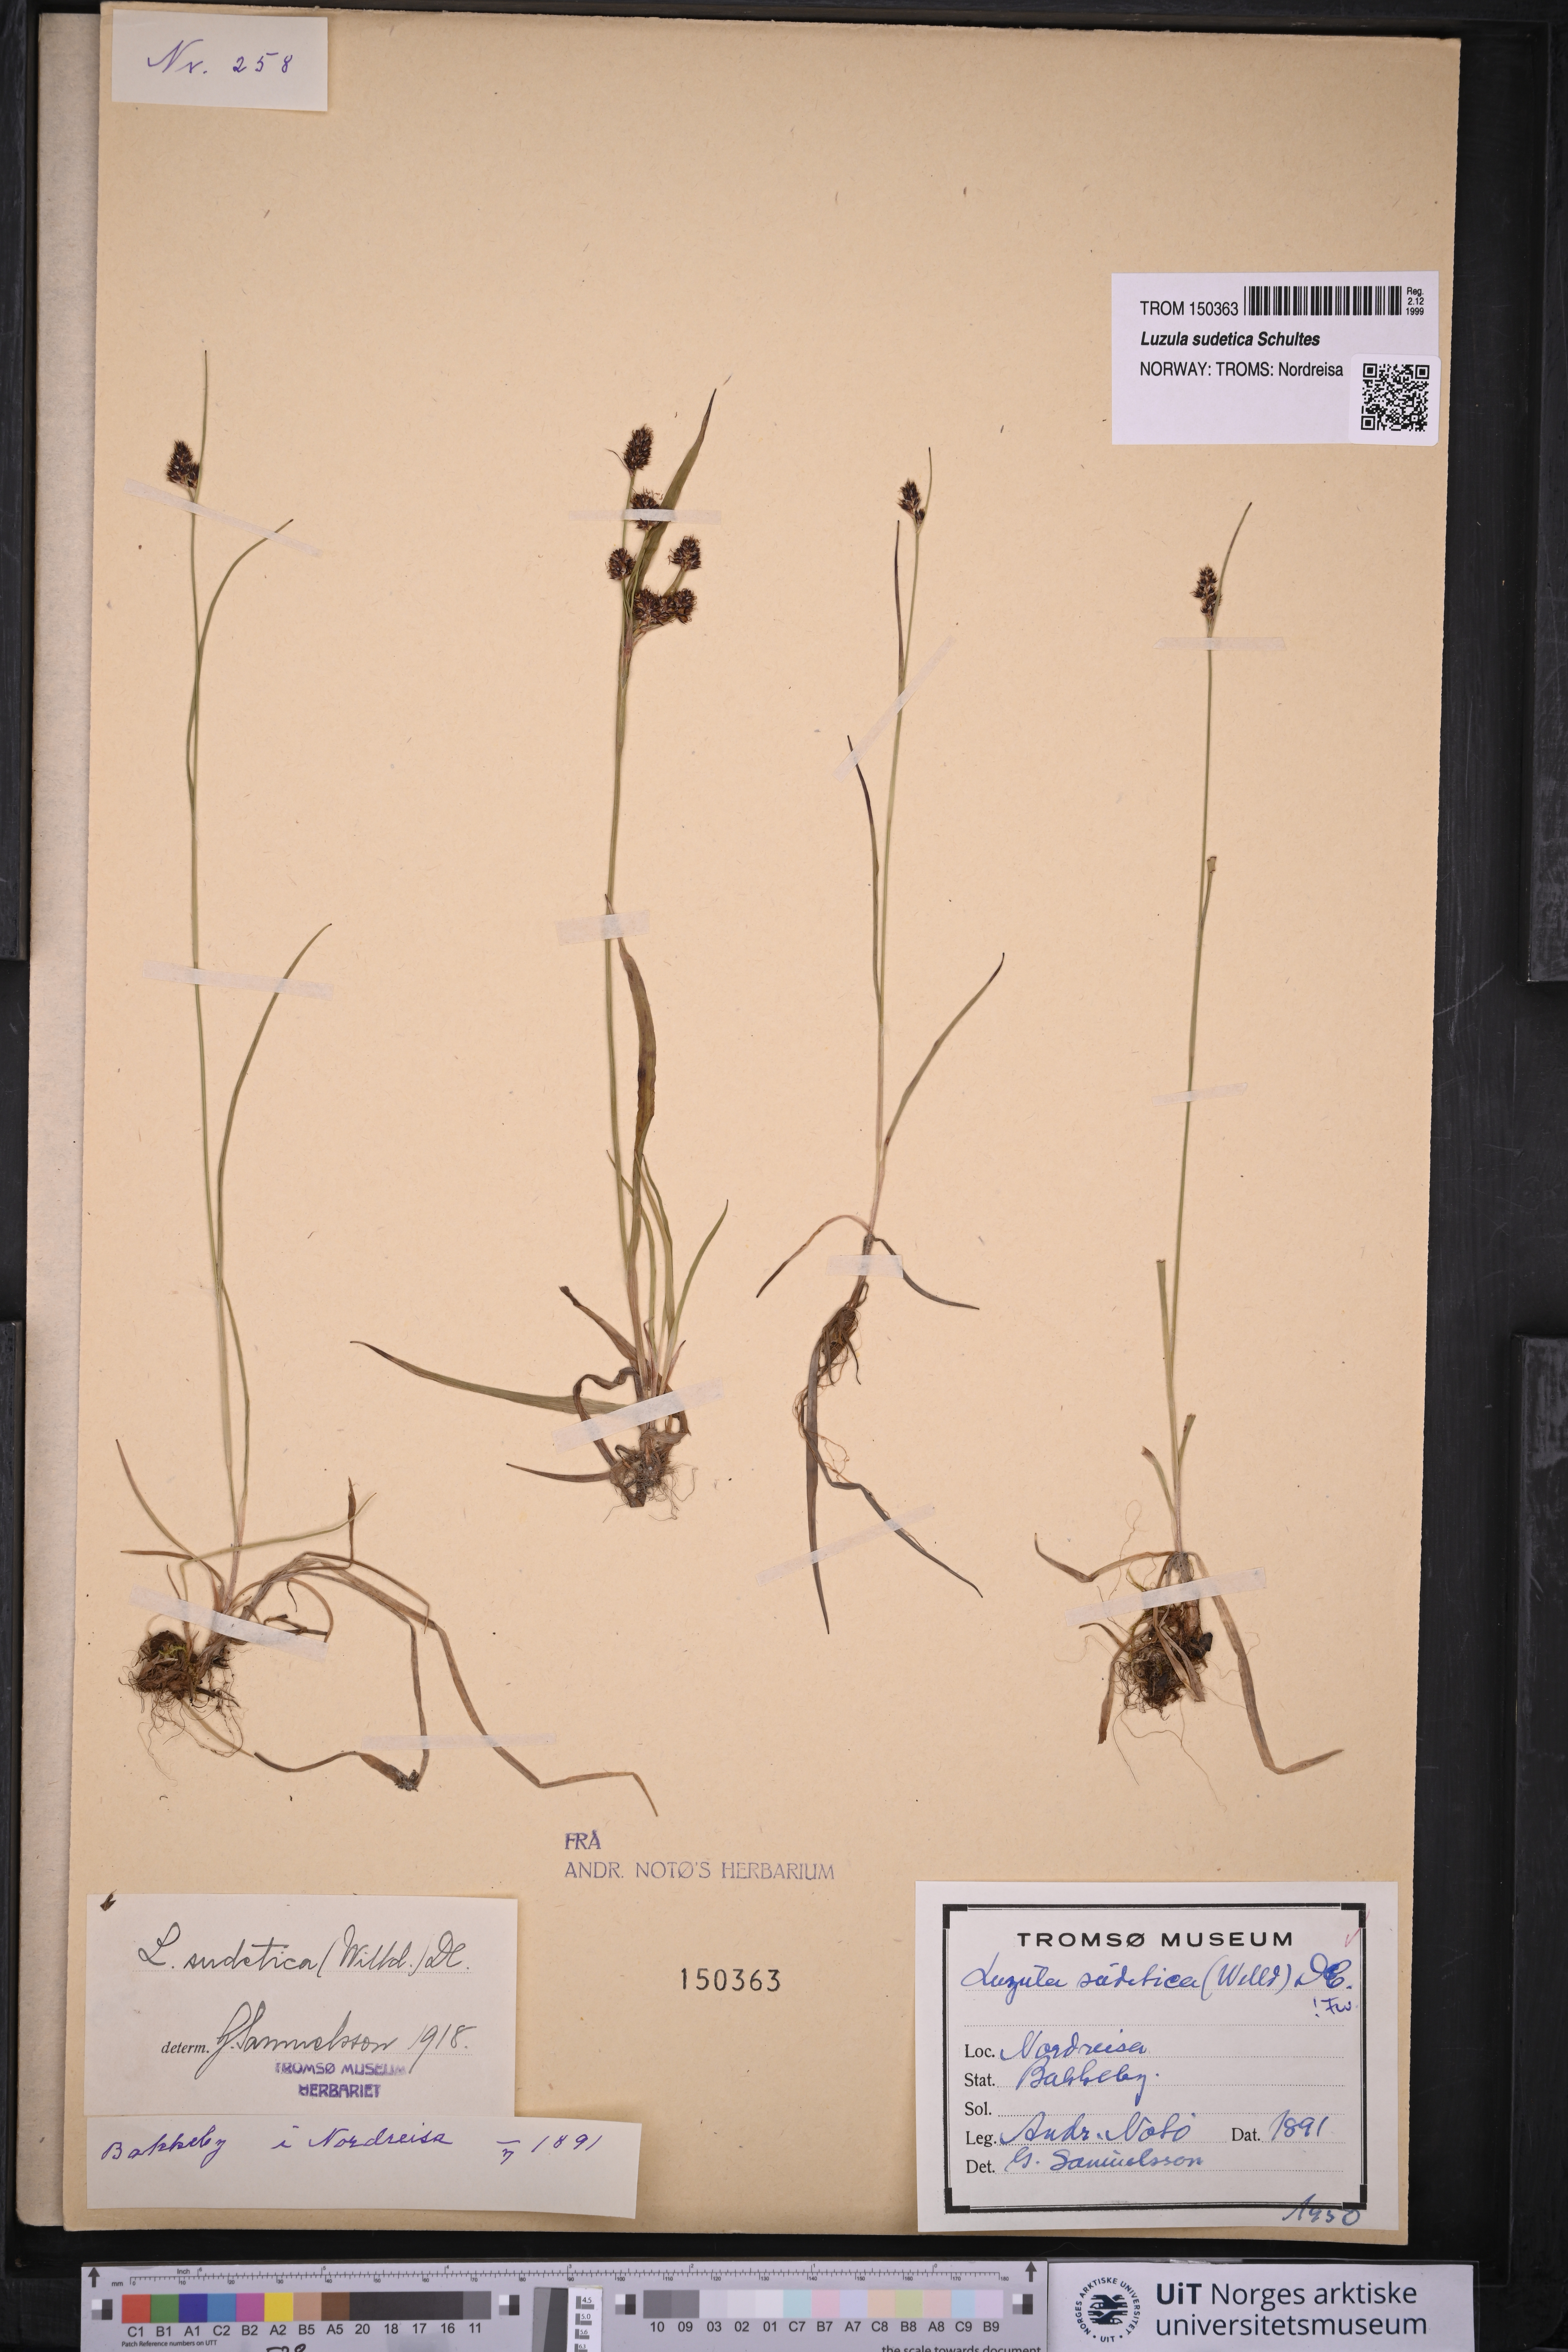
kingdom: Plantae
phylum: Tracheophyta
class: Liliopsida
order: Poales
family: Juncaceae
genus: Luzula
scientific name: Luzula sudetica
